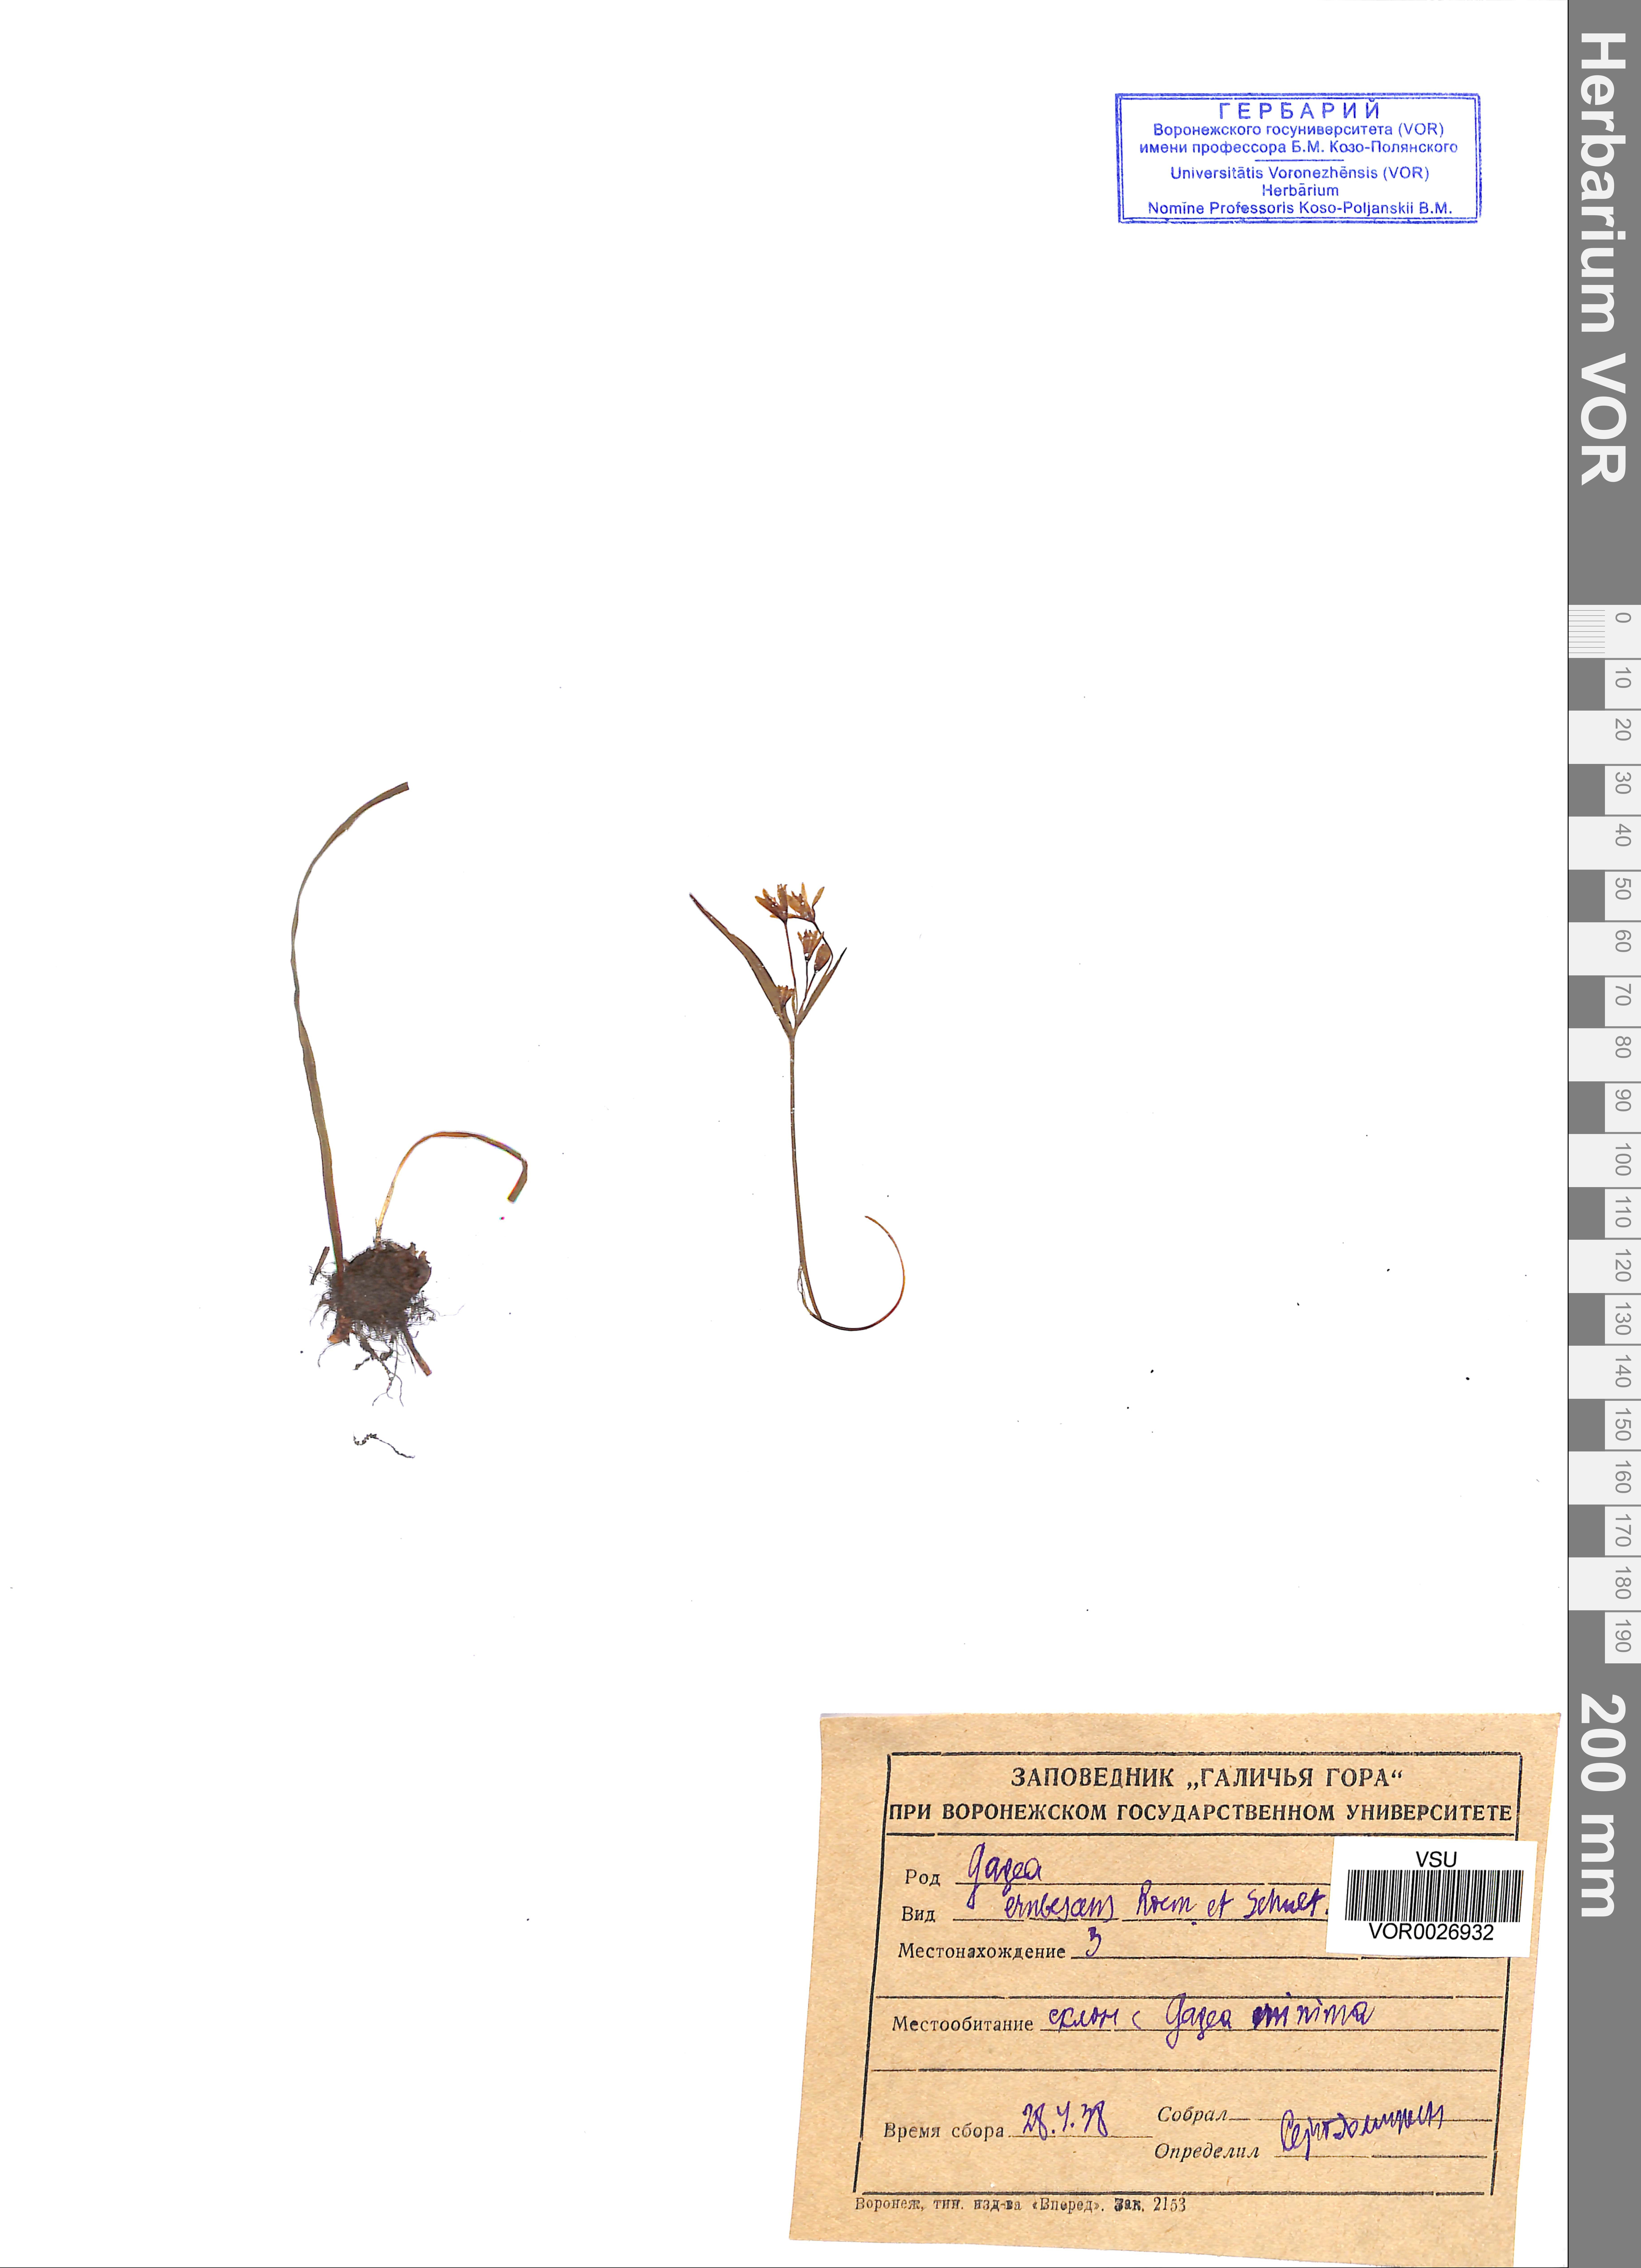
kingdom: Plantae
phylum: Tracheophyta
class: Liliopsida
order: Liliales
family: Liliaceae
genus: Gagea
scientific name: Gagea fragifera
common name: Lily
